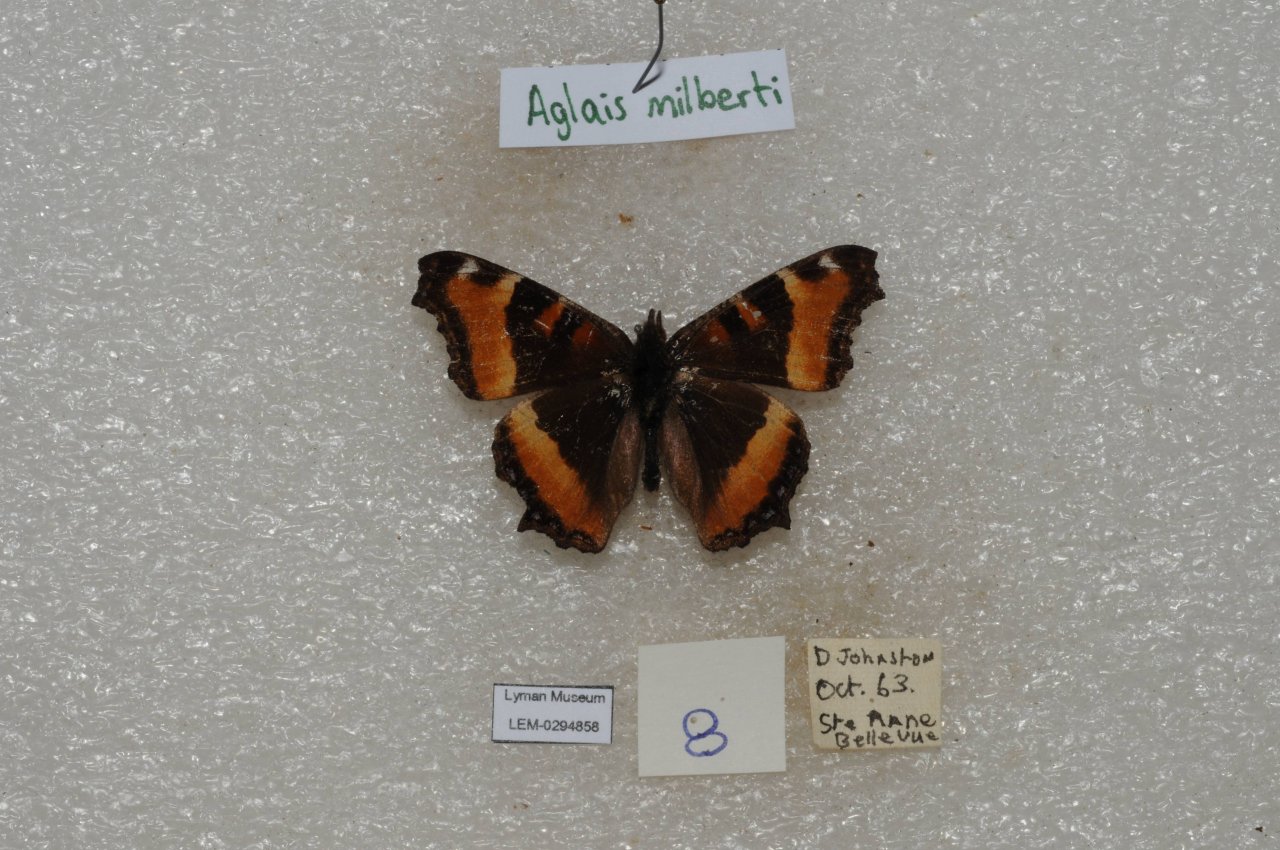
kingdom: Animalia
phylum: Arthropoda
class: Insecta
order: Lepidoptera
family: Nymphalidae
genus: Aglais
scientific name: Aglais milberti
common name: Milbert's Tortoiseshell
